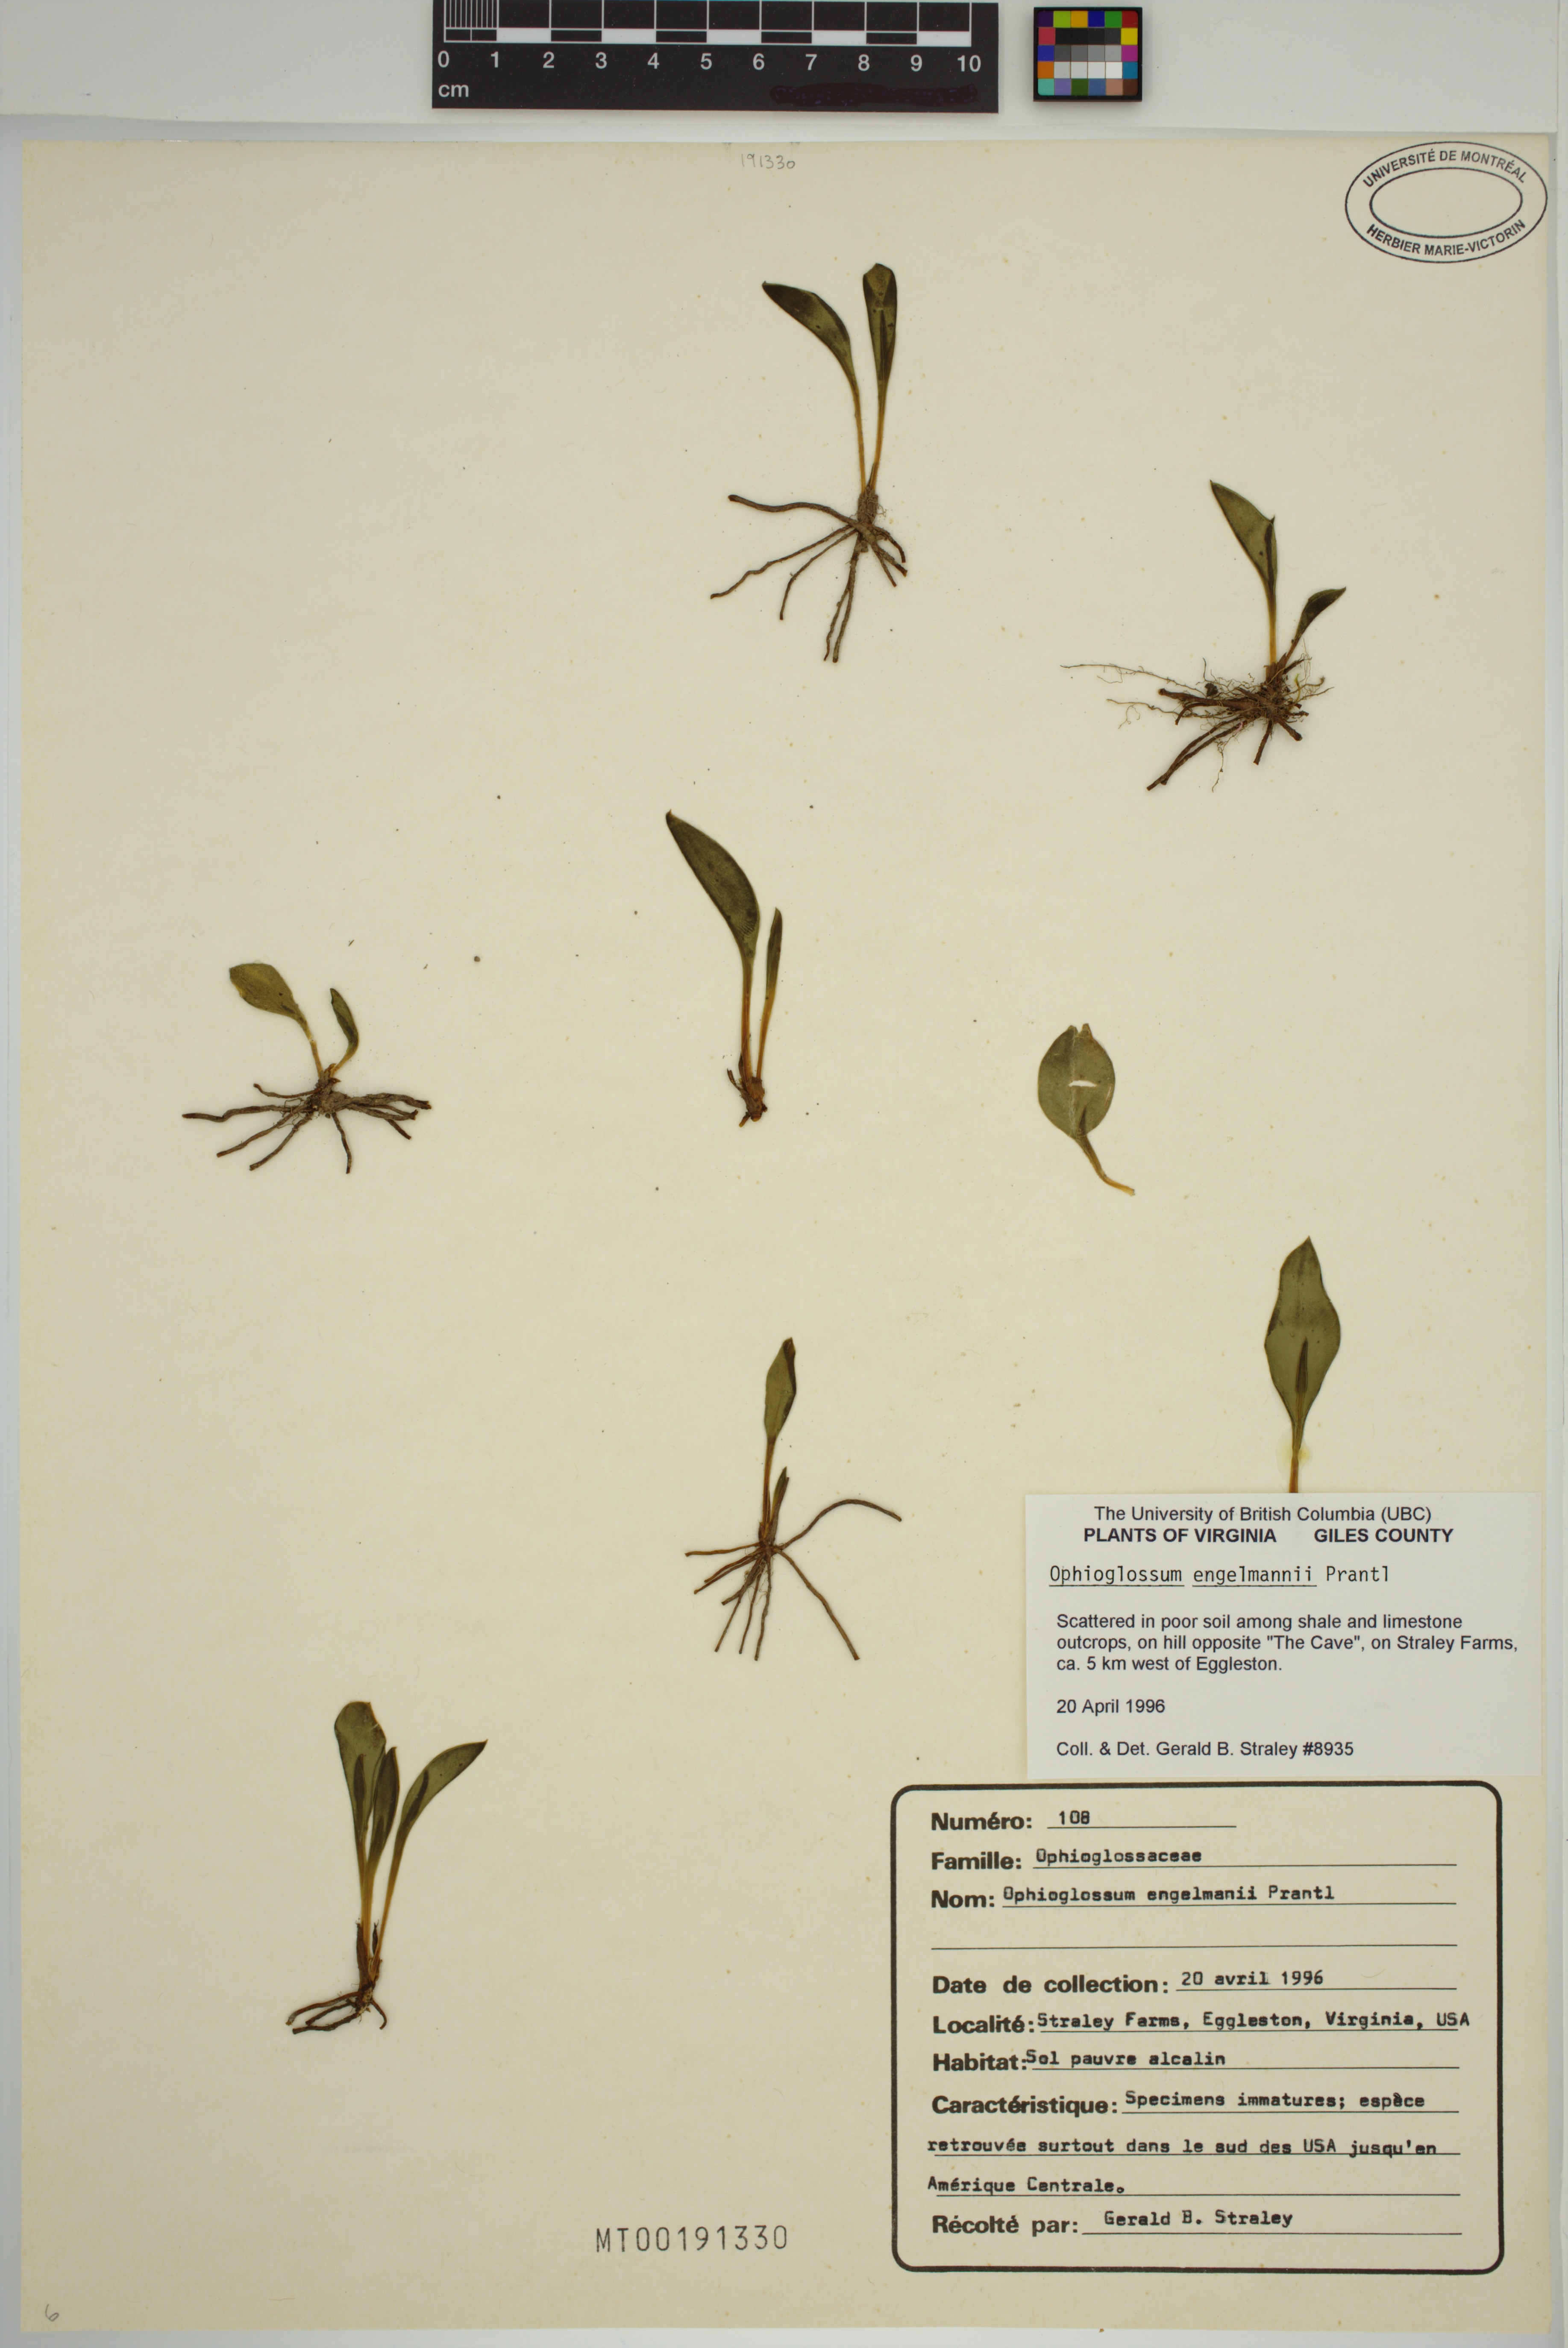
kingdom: Plantae
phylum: Tracheophyta
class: Polypodiopsida
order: Ophioglossales
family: Ophioglossaceae
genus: Ophioglossum
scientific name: Ophioglossum engelmannii
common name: Limestone adder's-tongue
